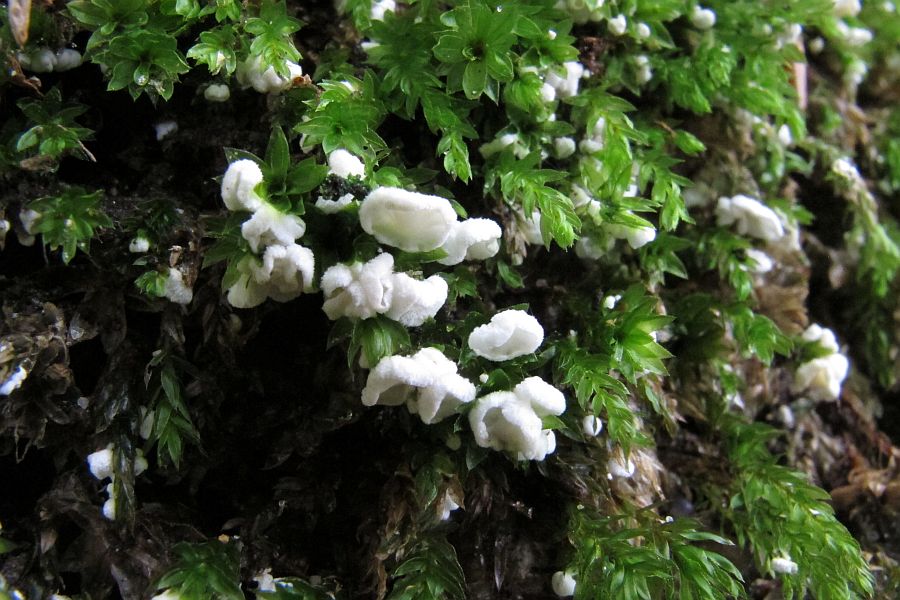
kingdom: Fungi
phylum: Basidiomycota
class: Agaricomycetes
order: Agaricales
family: Tricholomataceae
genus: Rimbachia
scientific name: Rimbachia arachnoidea
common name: Almindelig mosskål
